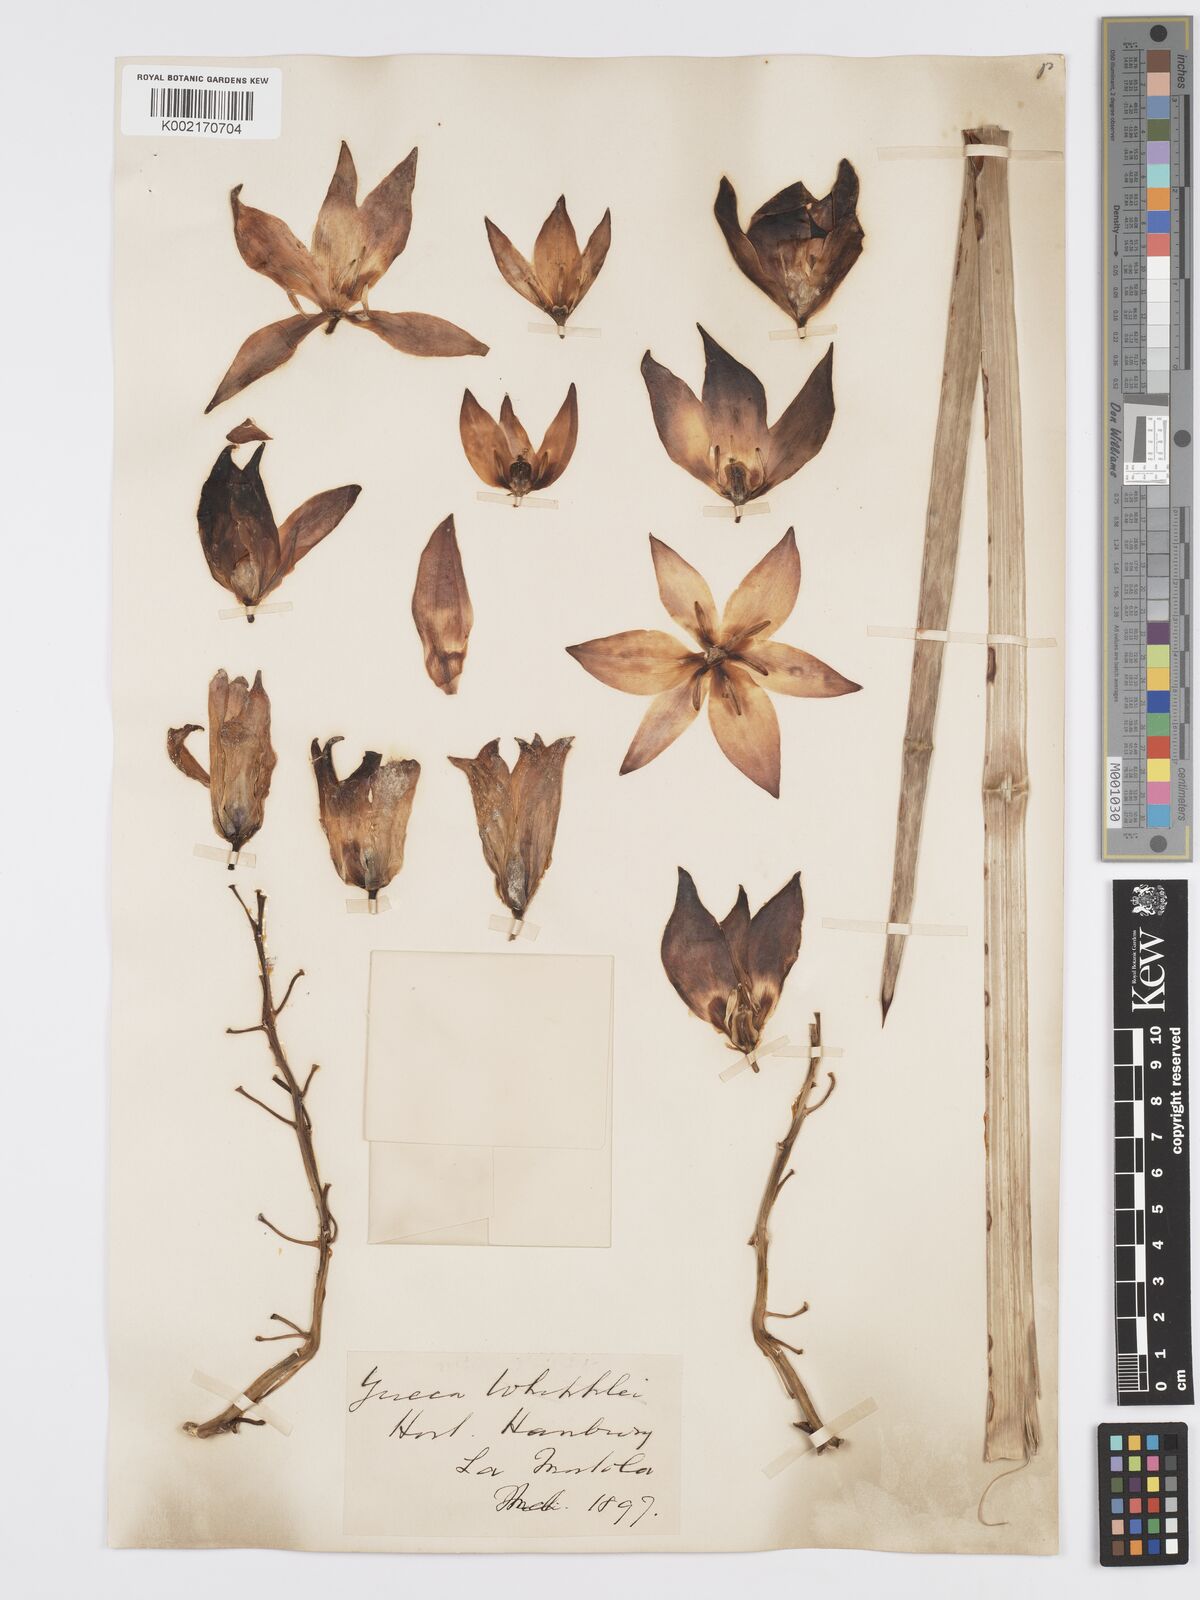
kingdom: Plantae
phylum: Tracheophyta
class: Liliopsida
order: Asparagales
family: Asparagaceae
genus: Hesperoyucca
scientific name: Hesperoyucca whipplei
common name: Our lord's-candle
